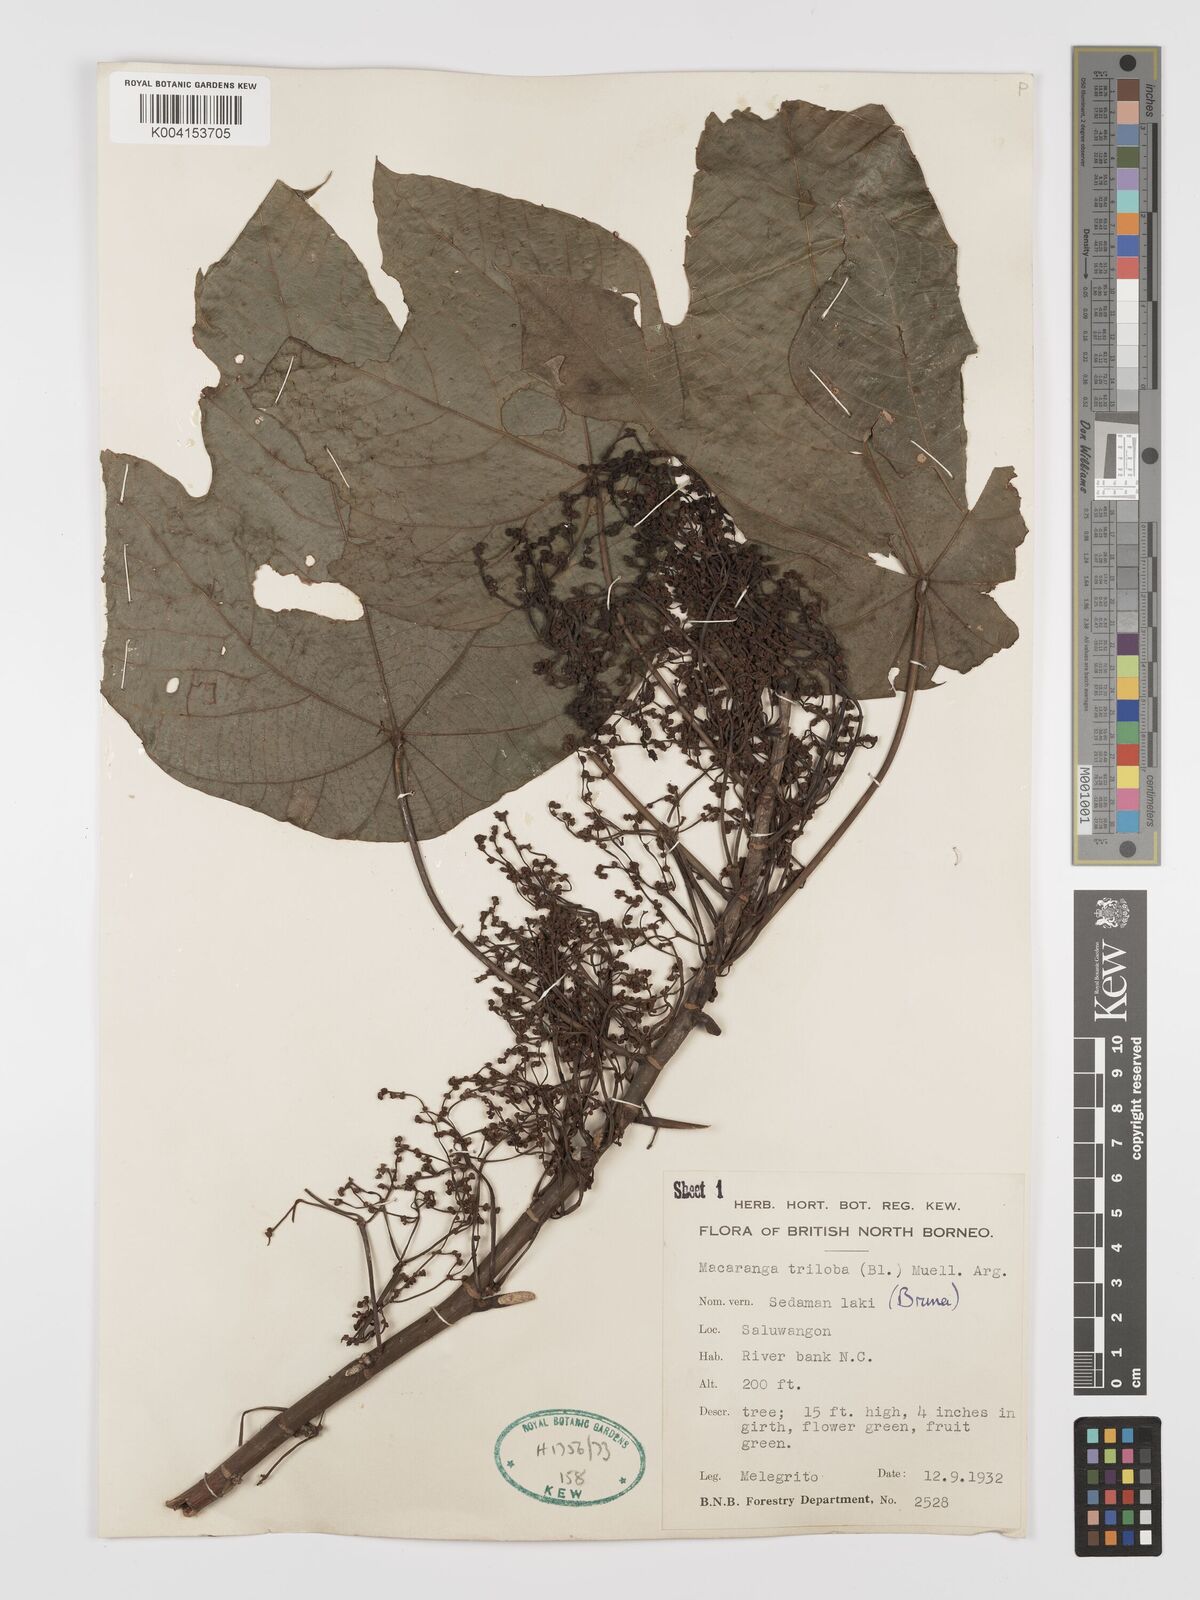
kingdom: Plantae
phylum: Tracheophyta
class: Magnoliopsida
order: Malpighiales
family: Euphorbiaceae
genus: Macaranga
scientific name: Macaranga triloba
